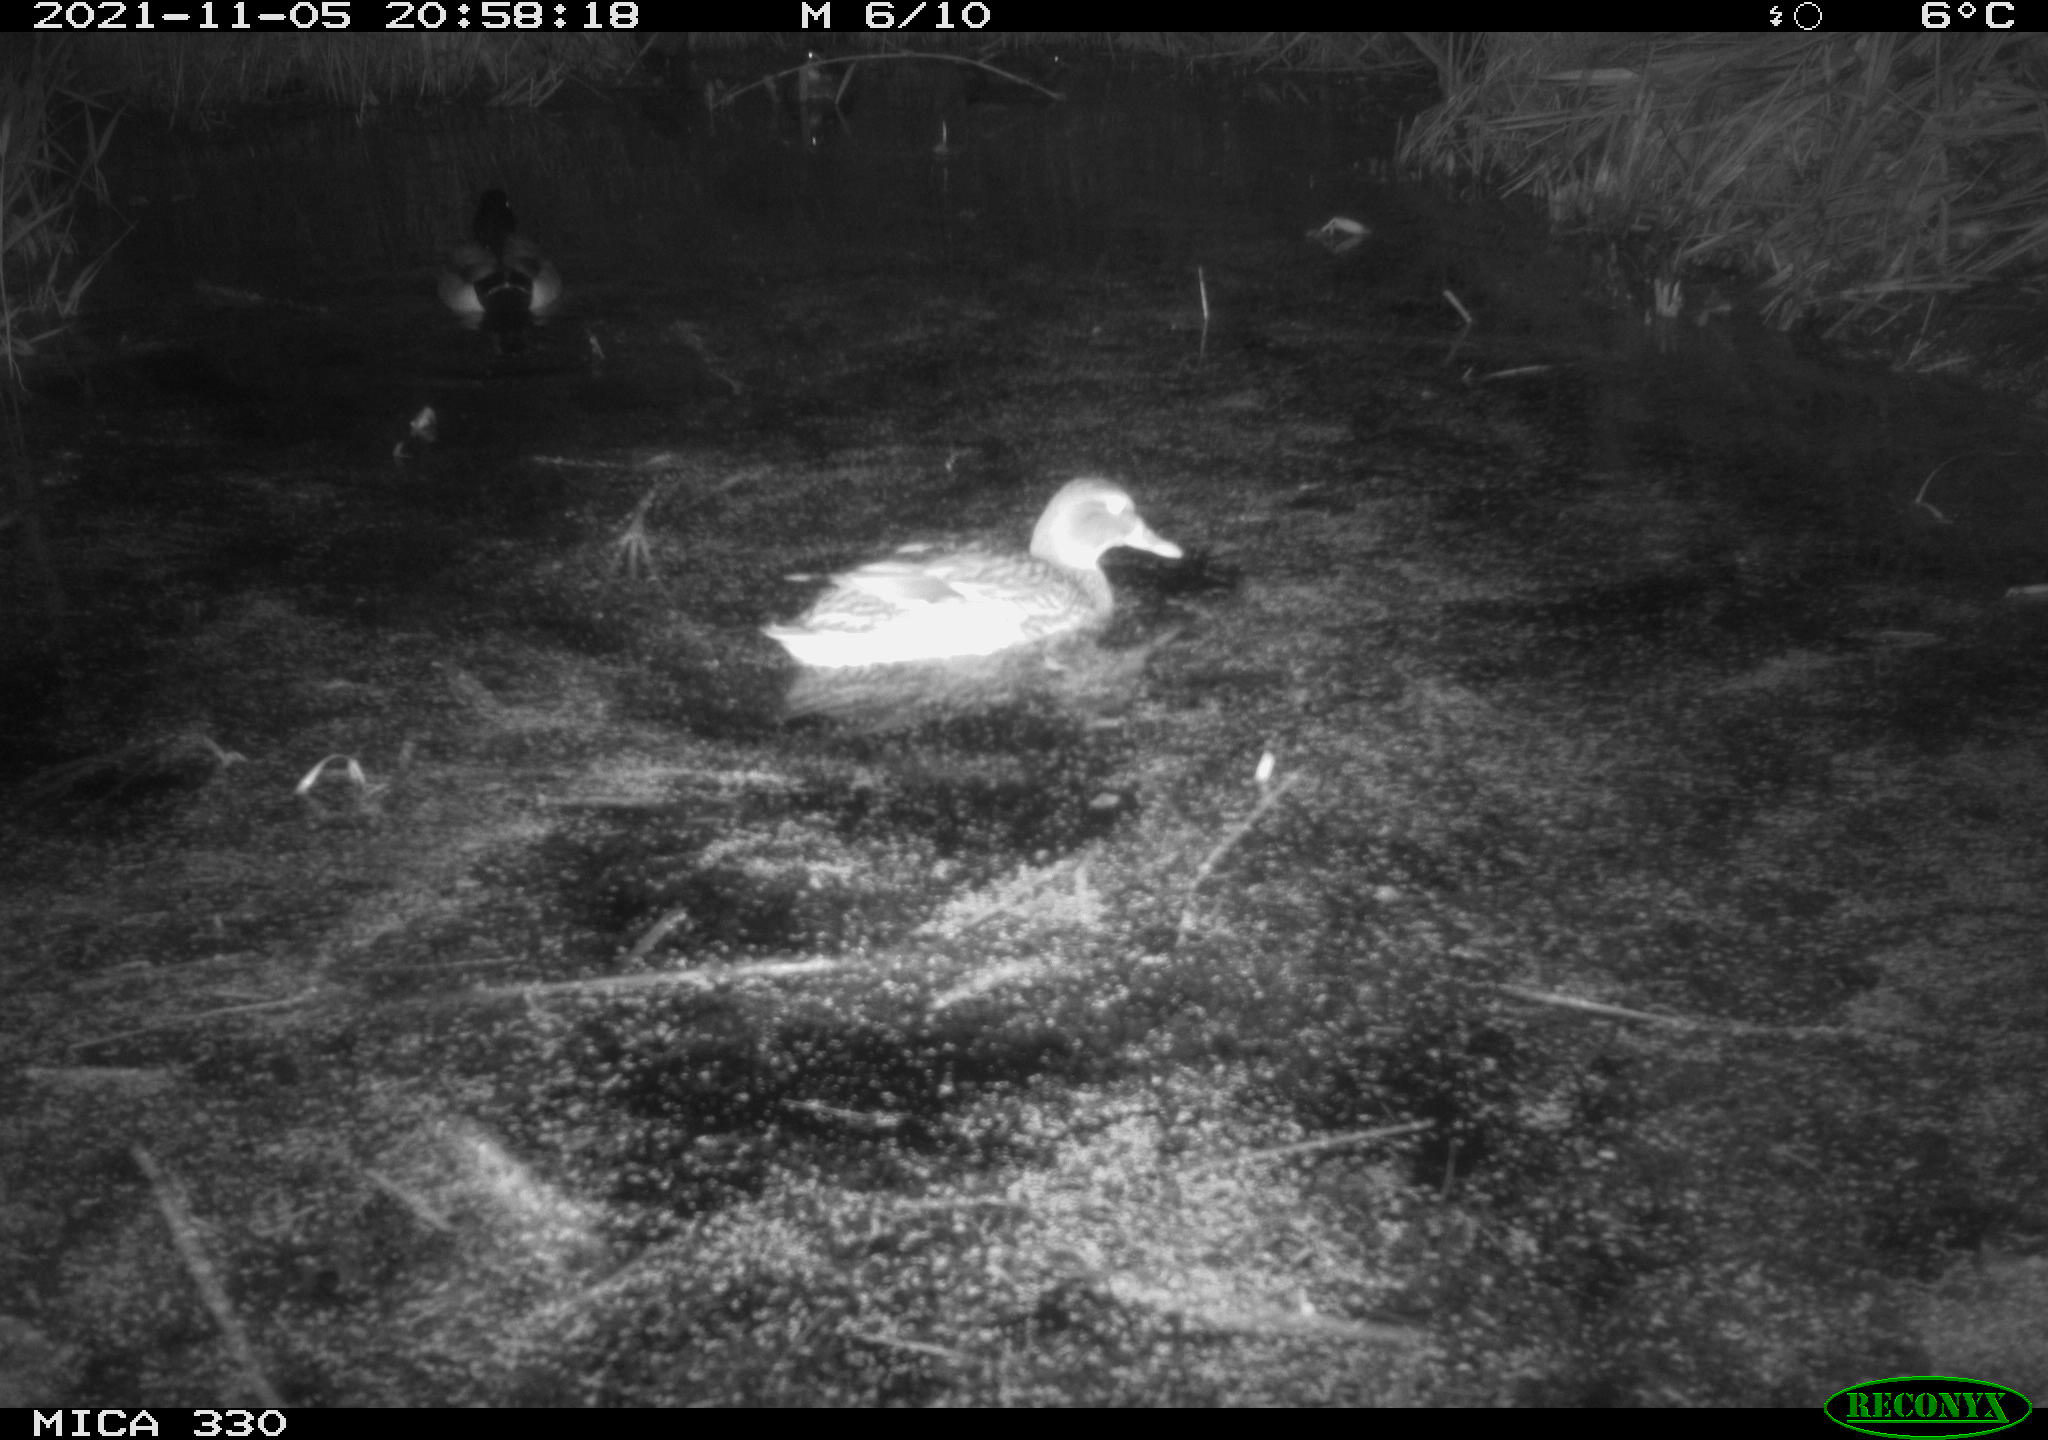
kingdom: Animalia
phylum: Chordata
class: Aves
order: Anseriformes
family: Anatidae
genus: Anas
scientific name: Anas platyrhynchos
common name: Mallard
